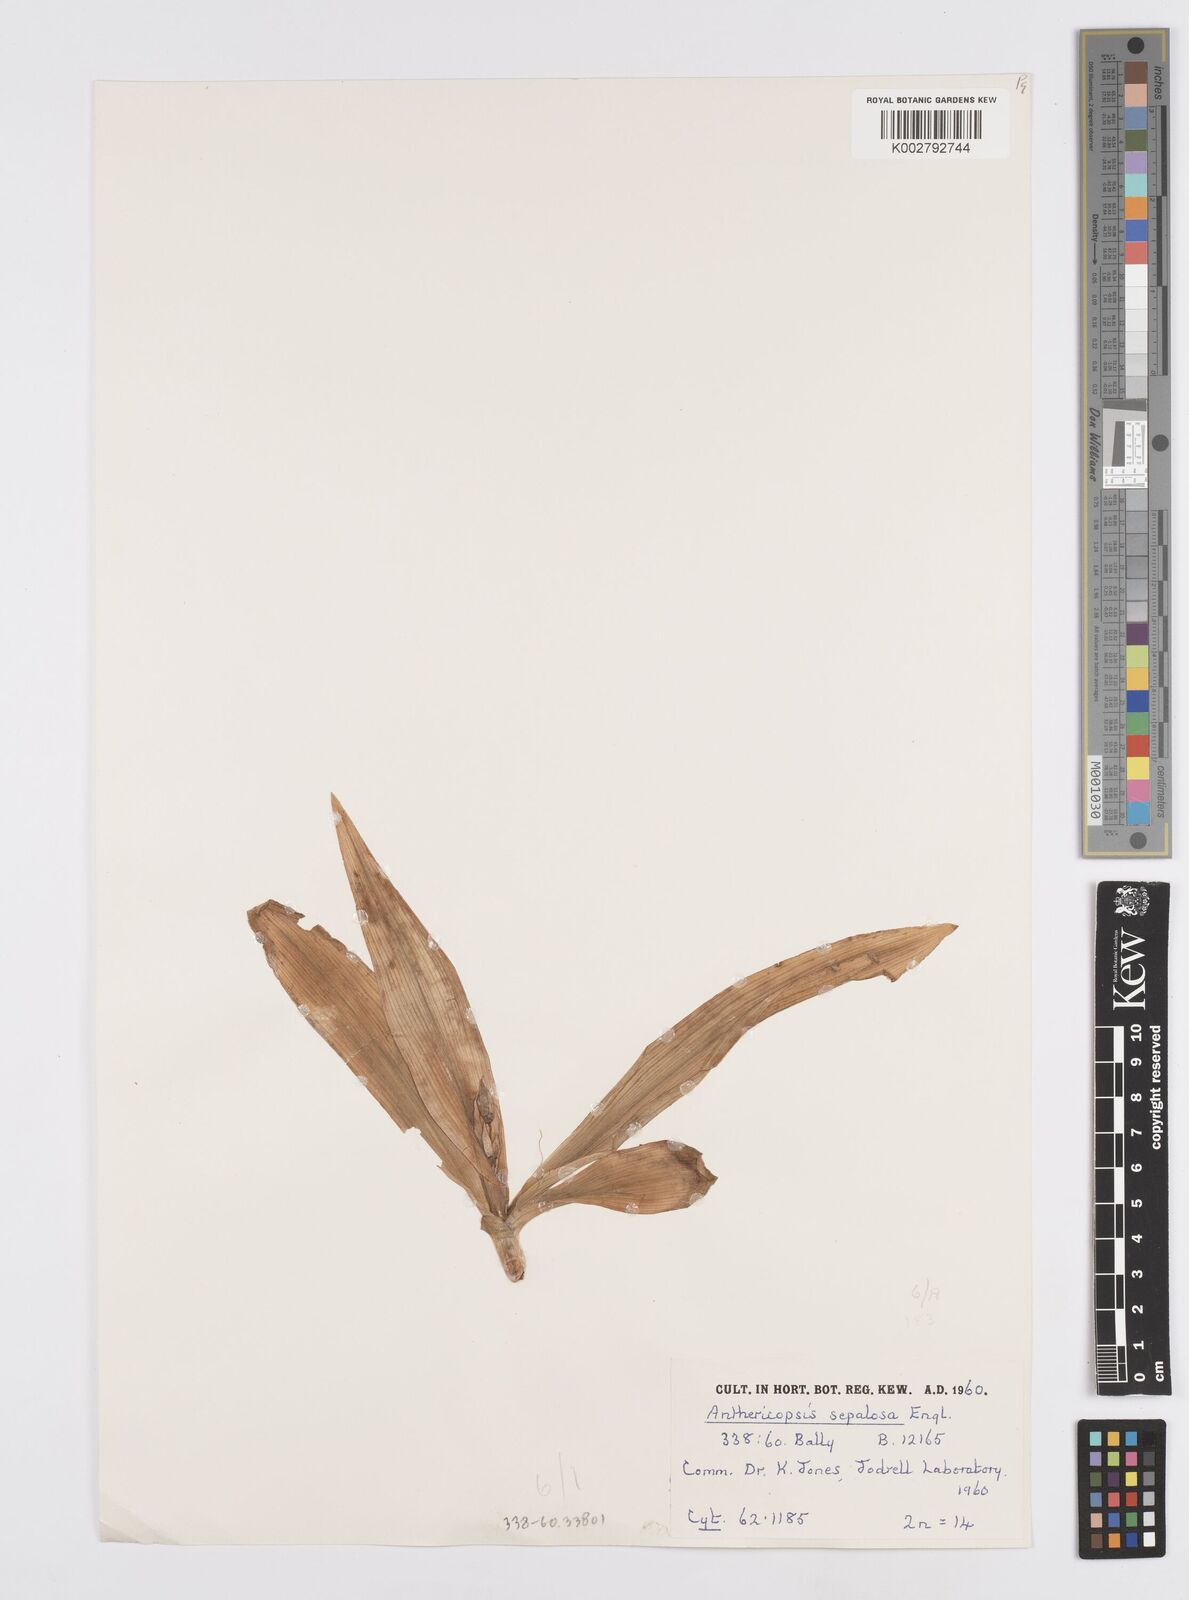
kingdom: Plantae
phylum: Tracheophyta
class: Liliopsida
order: Commelinales
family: Commelinaceae
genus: Anthericopsis
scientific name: Anthericopsis sepalosa
